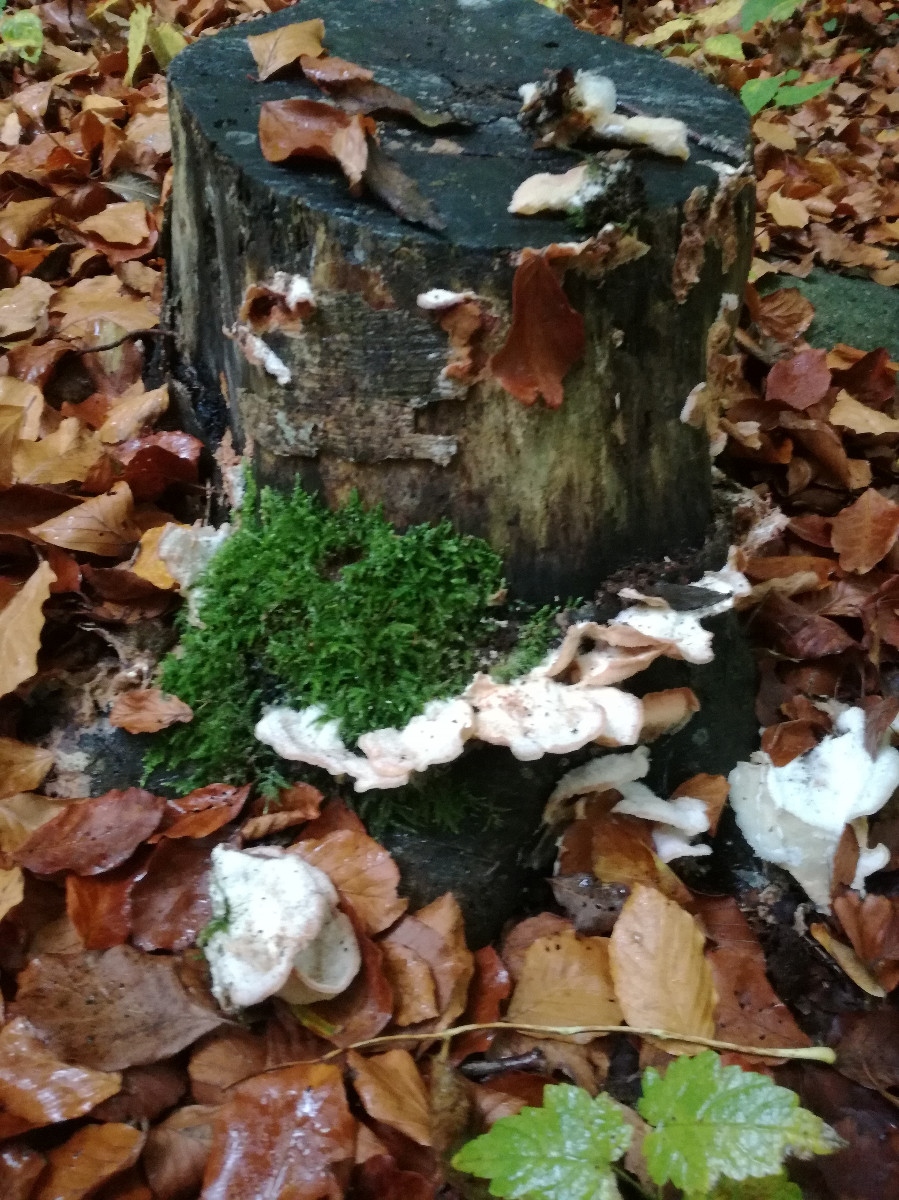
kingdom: Fungi
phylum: Basidiomycota
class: Agaricomycetes
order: Polyporales
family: Meruliaceae
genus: Phlebia
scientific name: Phlebia tremellosa
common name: bævrende åresvamp
